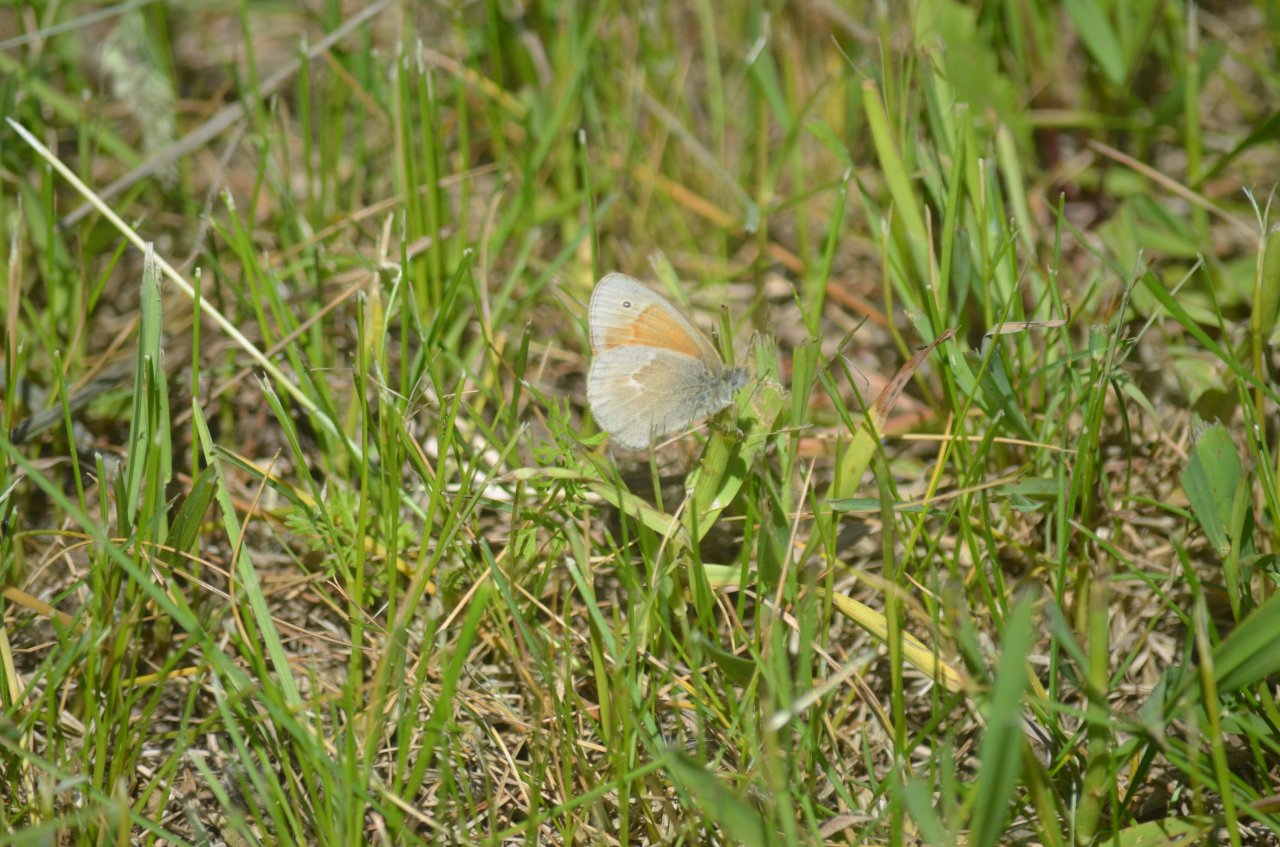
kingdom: Animalia
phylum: Arthropoda
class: Insecta
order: Lepidoptera
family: Nymphalidae
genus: Coenonympha
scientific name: Coenonympha tullia
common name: Large Heath
